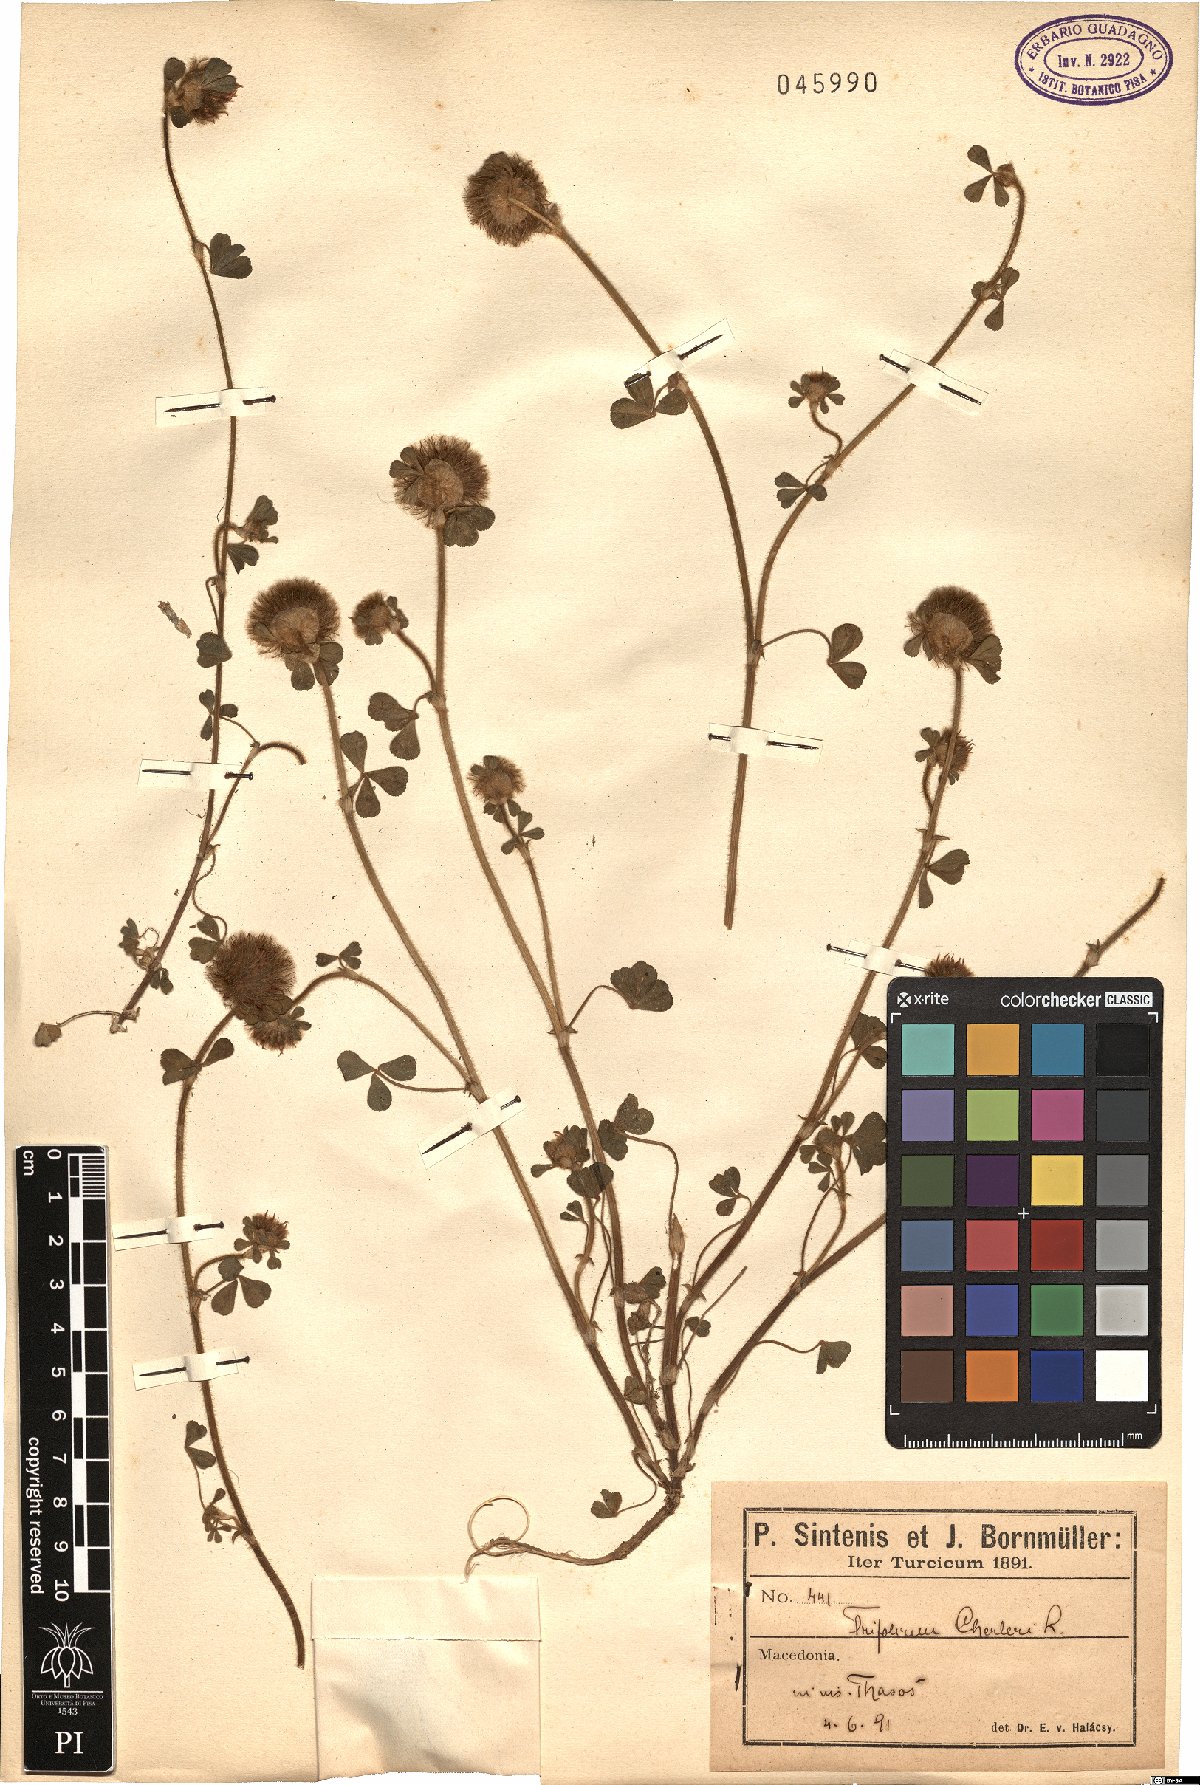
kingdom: Plantae
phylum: Tracheophyta
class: Magnoliopsida
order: Fabales
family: Fabaceae
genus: Trifolium
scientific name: Trifolium cherleri
